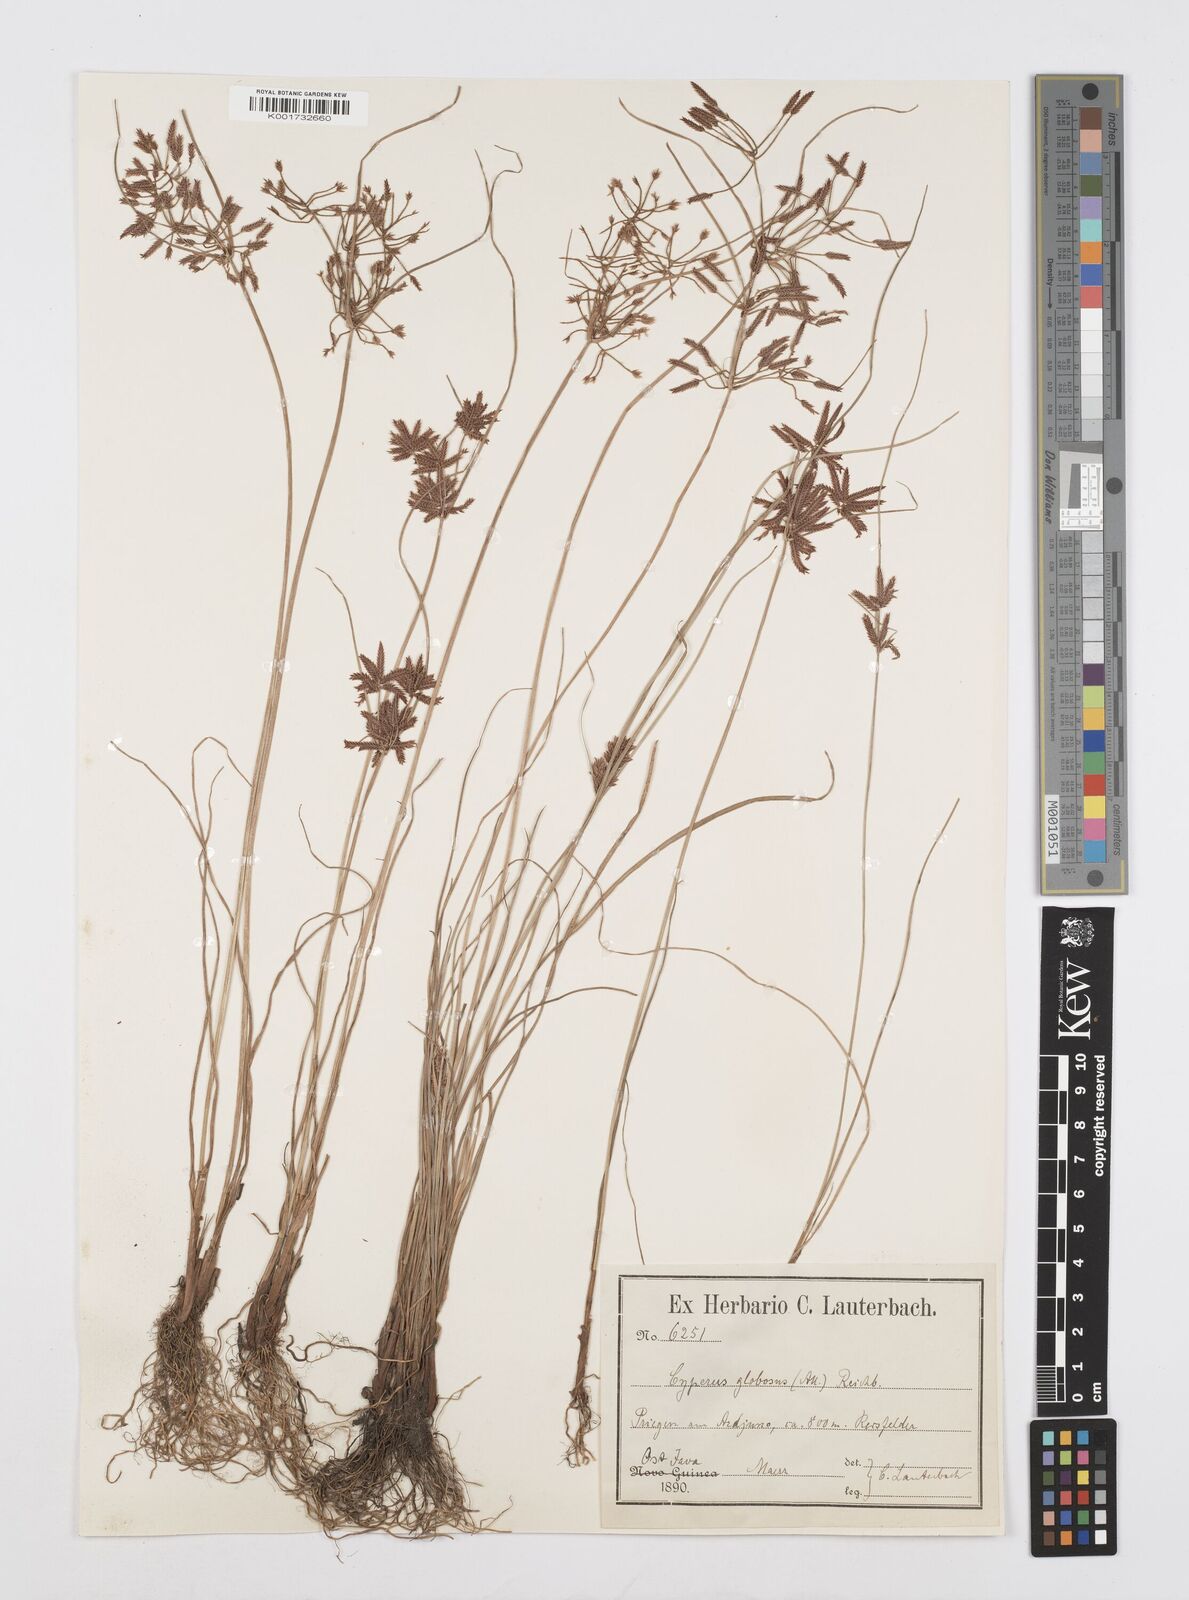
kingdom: Plantae
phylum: Tracheophyta
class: Liliopsida
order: Poales
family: Cyperaceae
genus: Cyperus
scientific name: Cyperus flavidus
